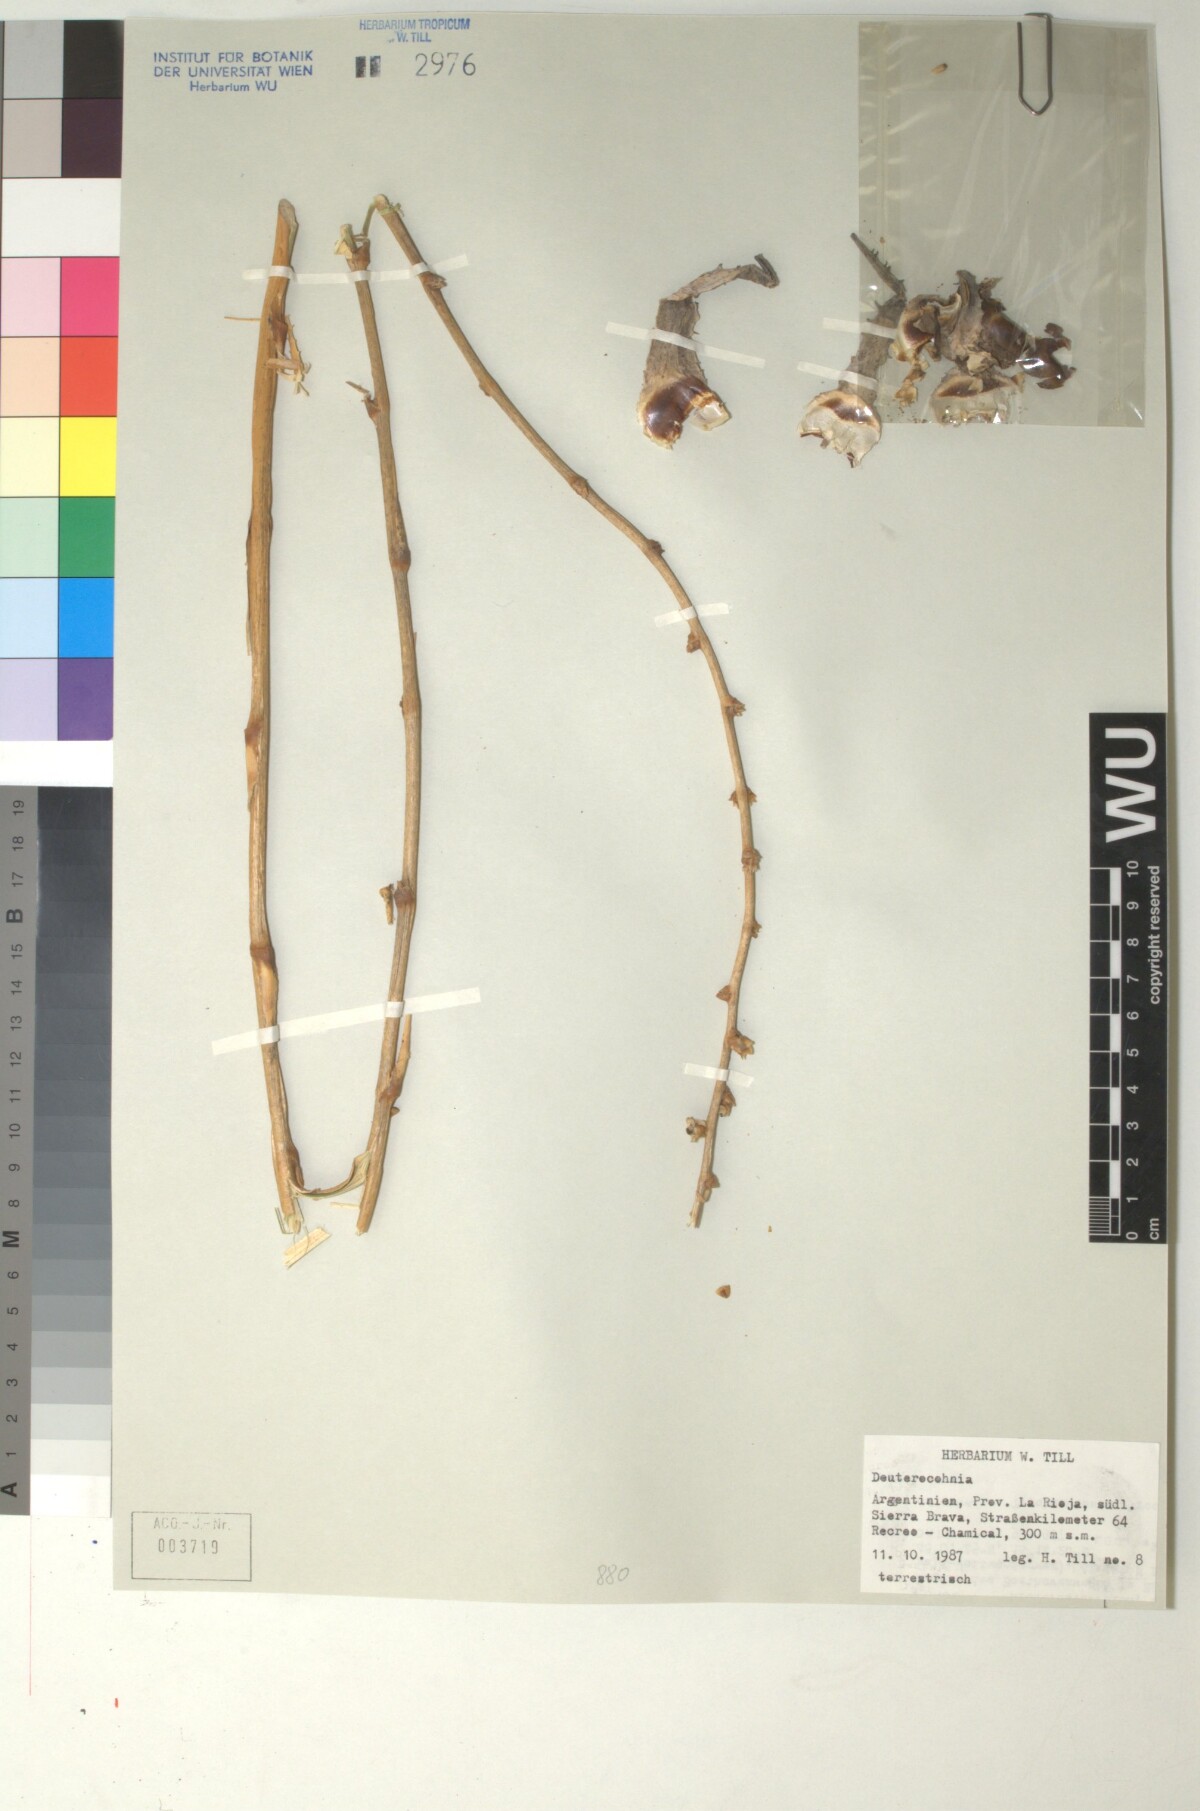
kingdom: Plantae
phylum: Tracheophyta
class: Liliopsida
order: Poales
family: Bromeliaceae
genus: Deuterocohnia
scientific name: Deuterocohnia
